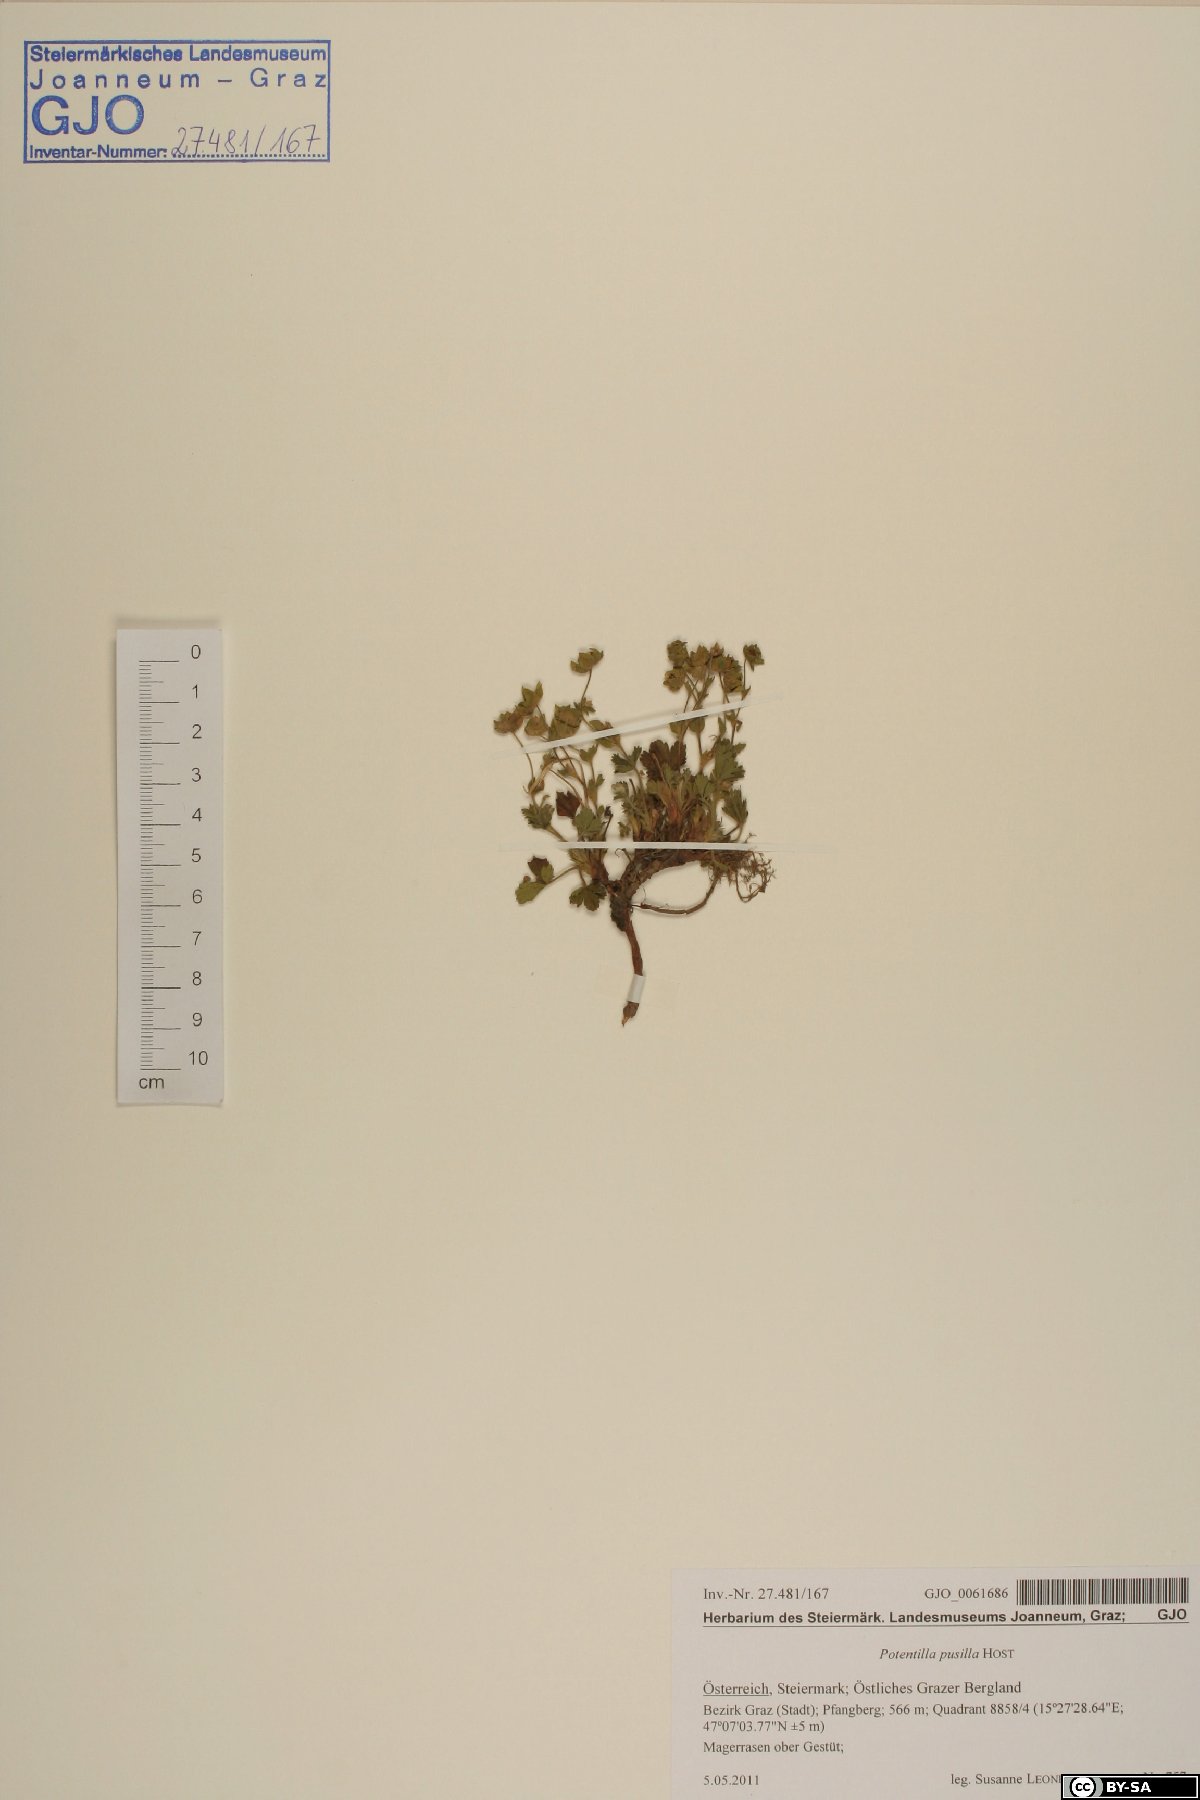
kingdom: Plantae
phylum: Tracheophyta
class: Magnoliopsida
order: Rosales
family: Rosaceae
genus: Potentilla
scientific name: Potentilla pusilla
